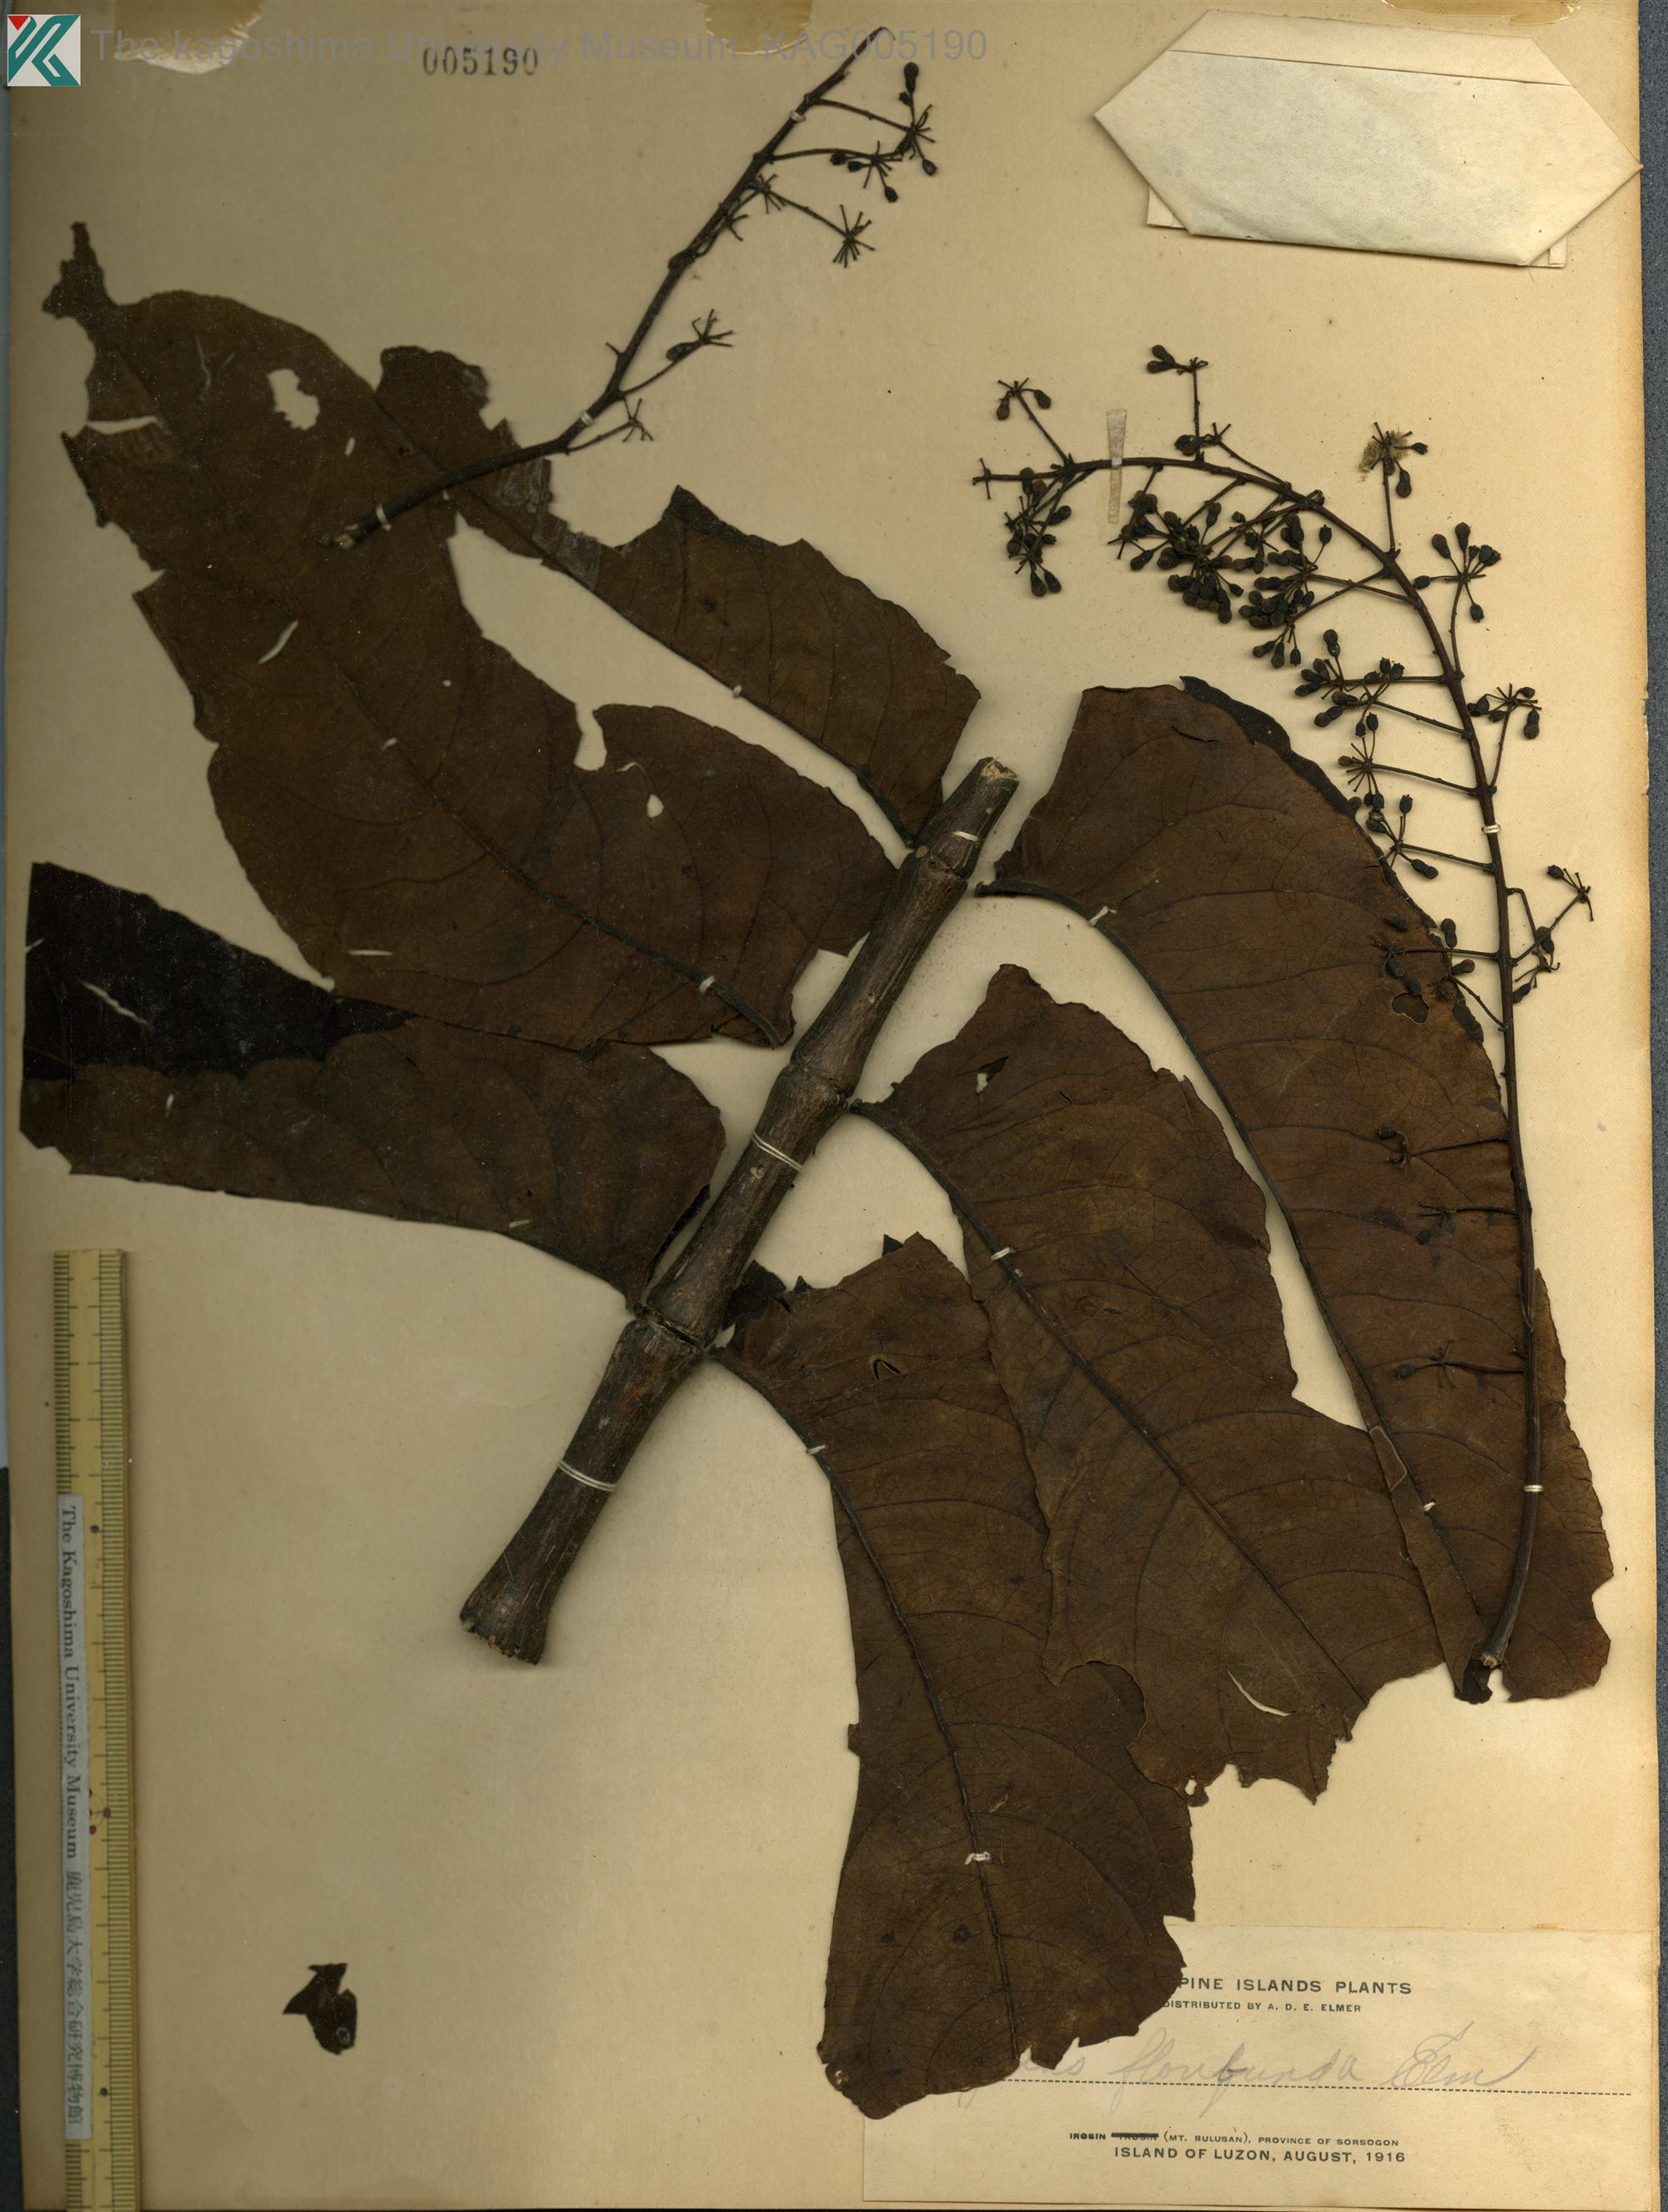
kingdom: Plantae
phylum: Tracheophyta
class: Magnoliopsida
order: Apiales
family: Araliaceae
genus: Polyscias
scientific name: Polyscias nodosa
